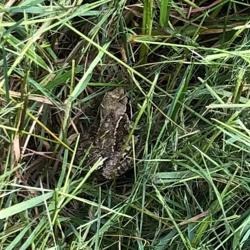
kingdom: Animalia
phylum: Chordata
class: Amphibia
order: Anura
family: Ranidae
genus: Rana
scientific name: Rana temporaria
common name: Butsnudet frø
